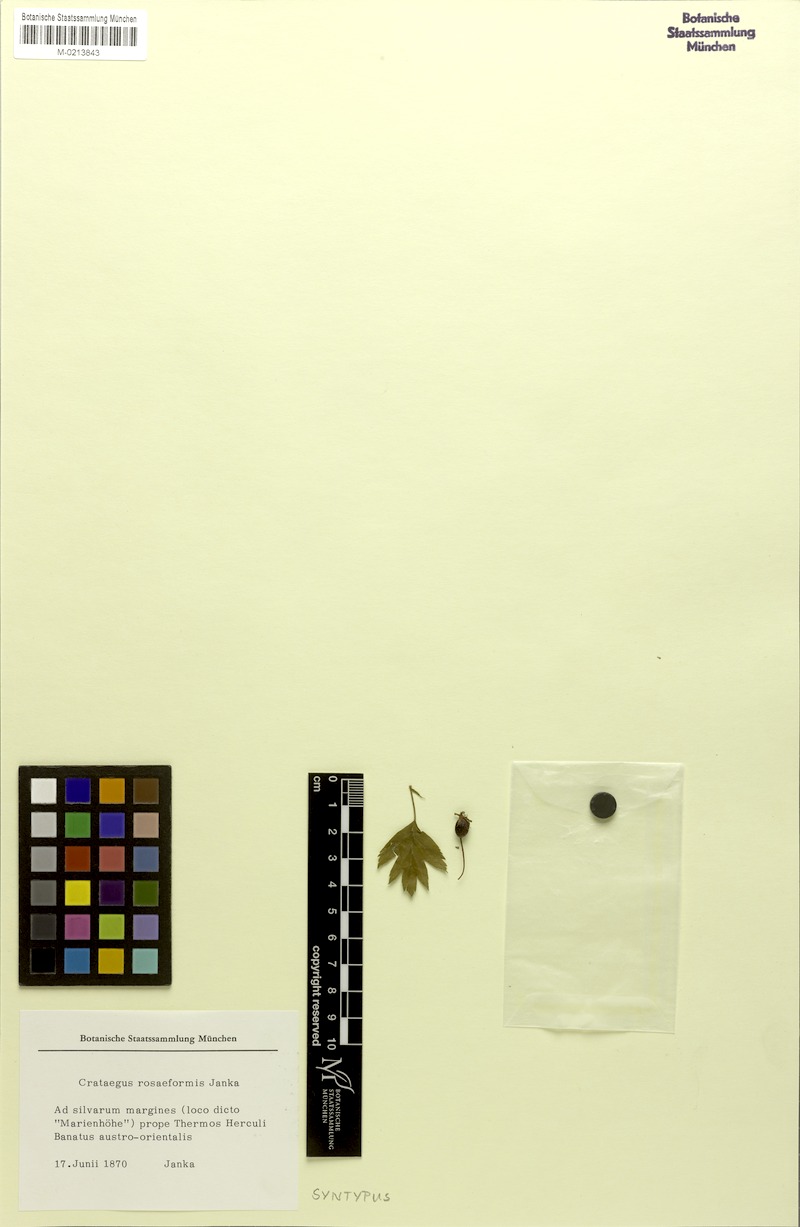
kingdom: Plantae
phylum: Tracheophyta
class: Magnoliopsida
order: Rosales
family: Rosaceae
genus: Crataegus
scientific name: Crataegus rhipidophylla
